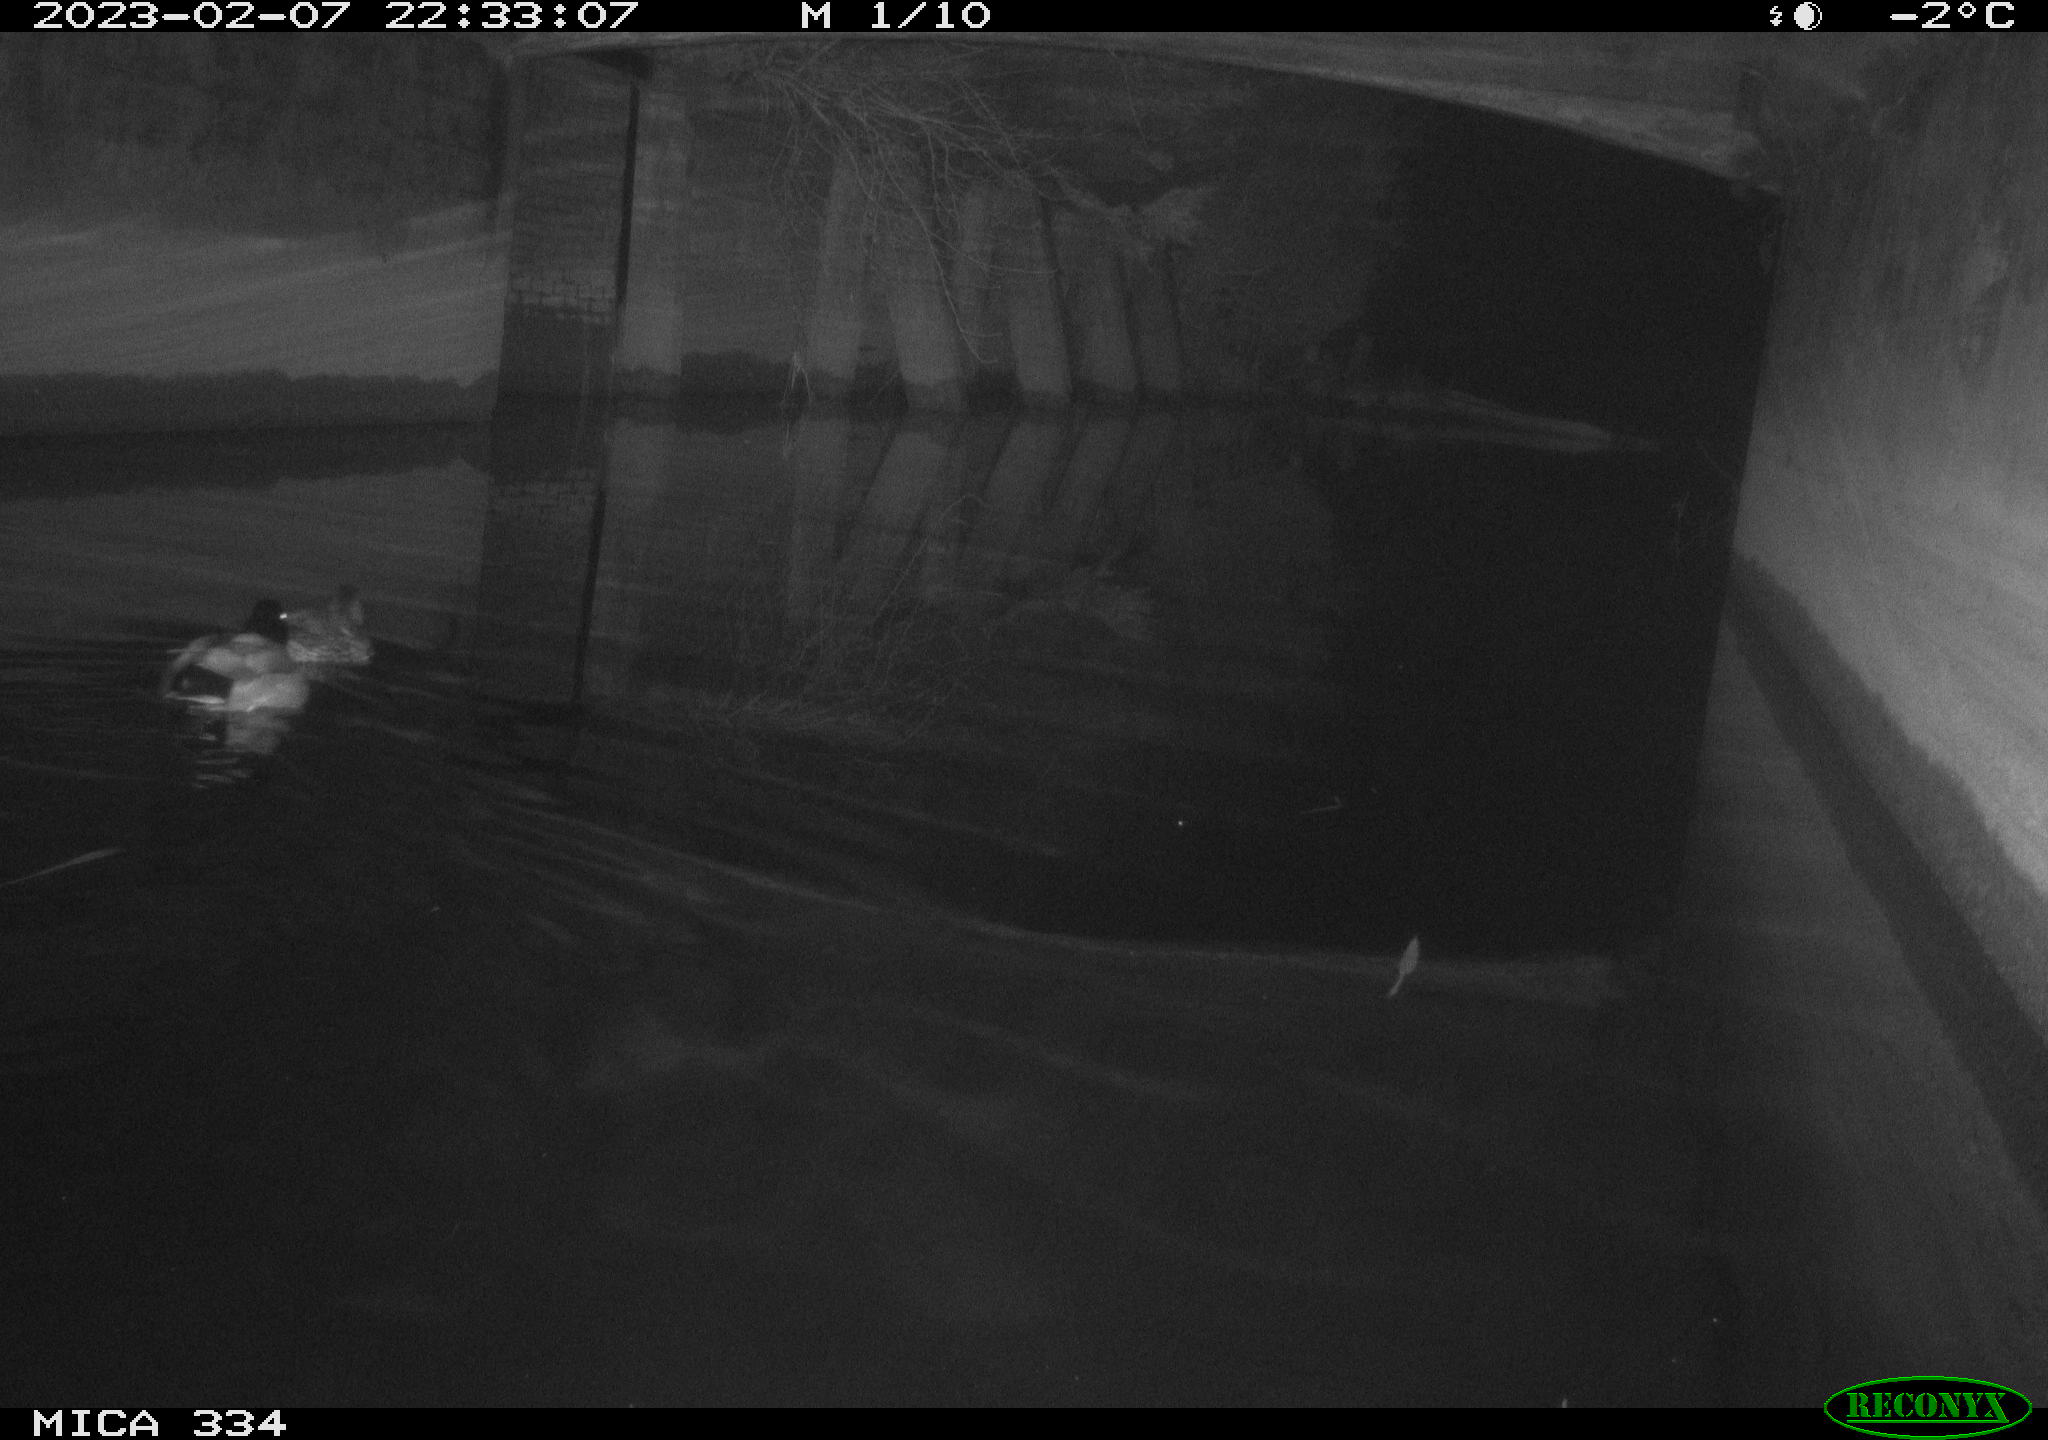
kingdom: Animalia
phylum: Chordata
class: Aves
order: Anseriformes
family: Anatidae
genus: Anas
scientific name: Anas
